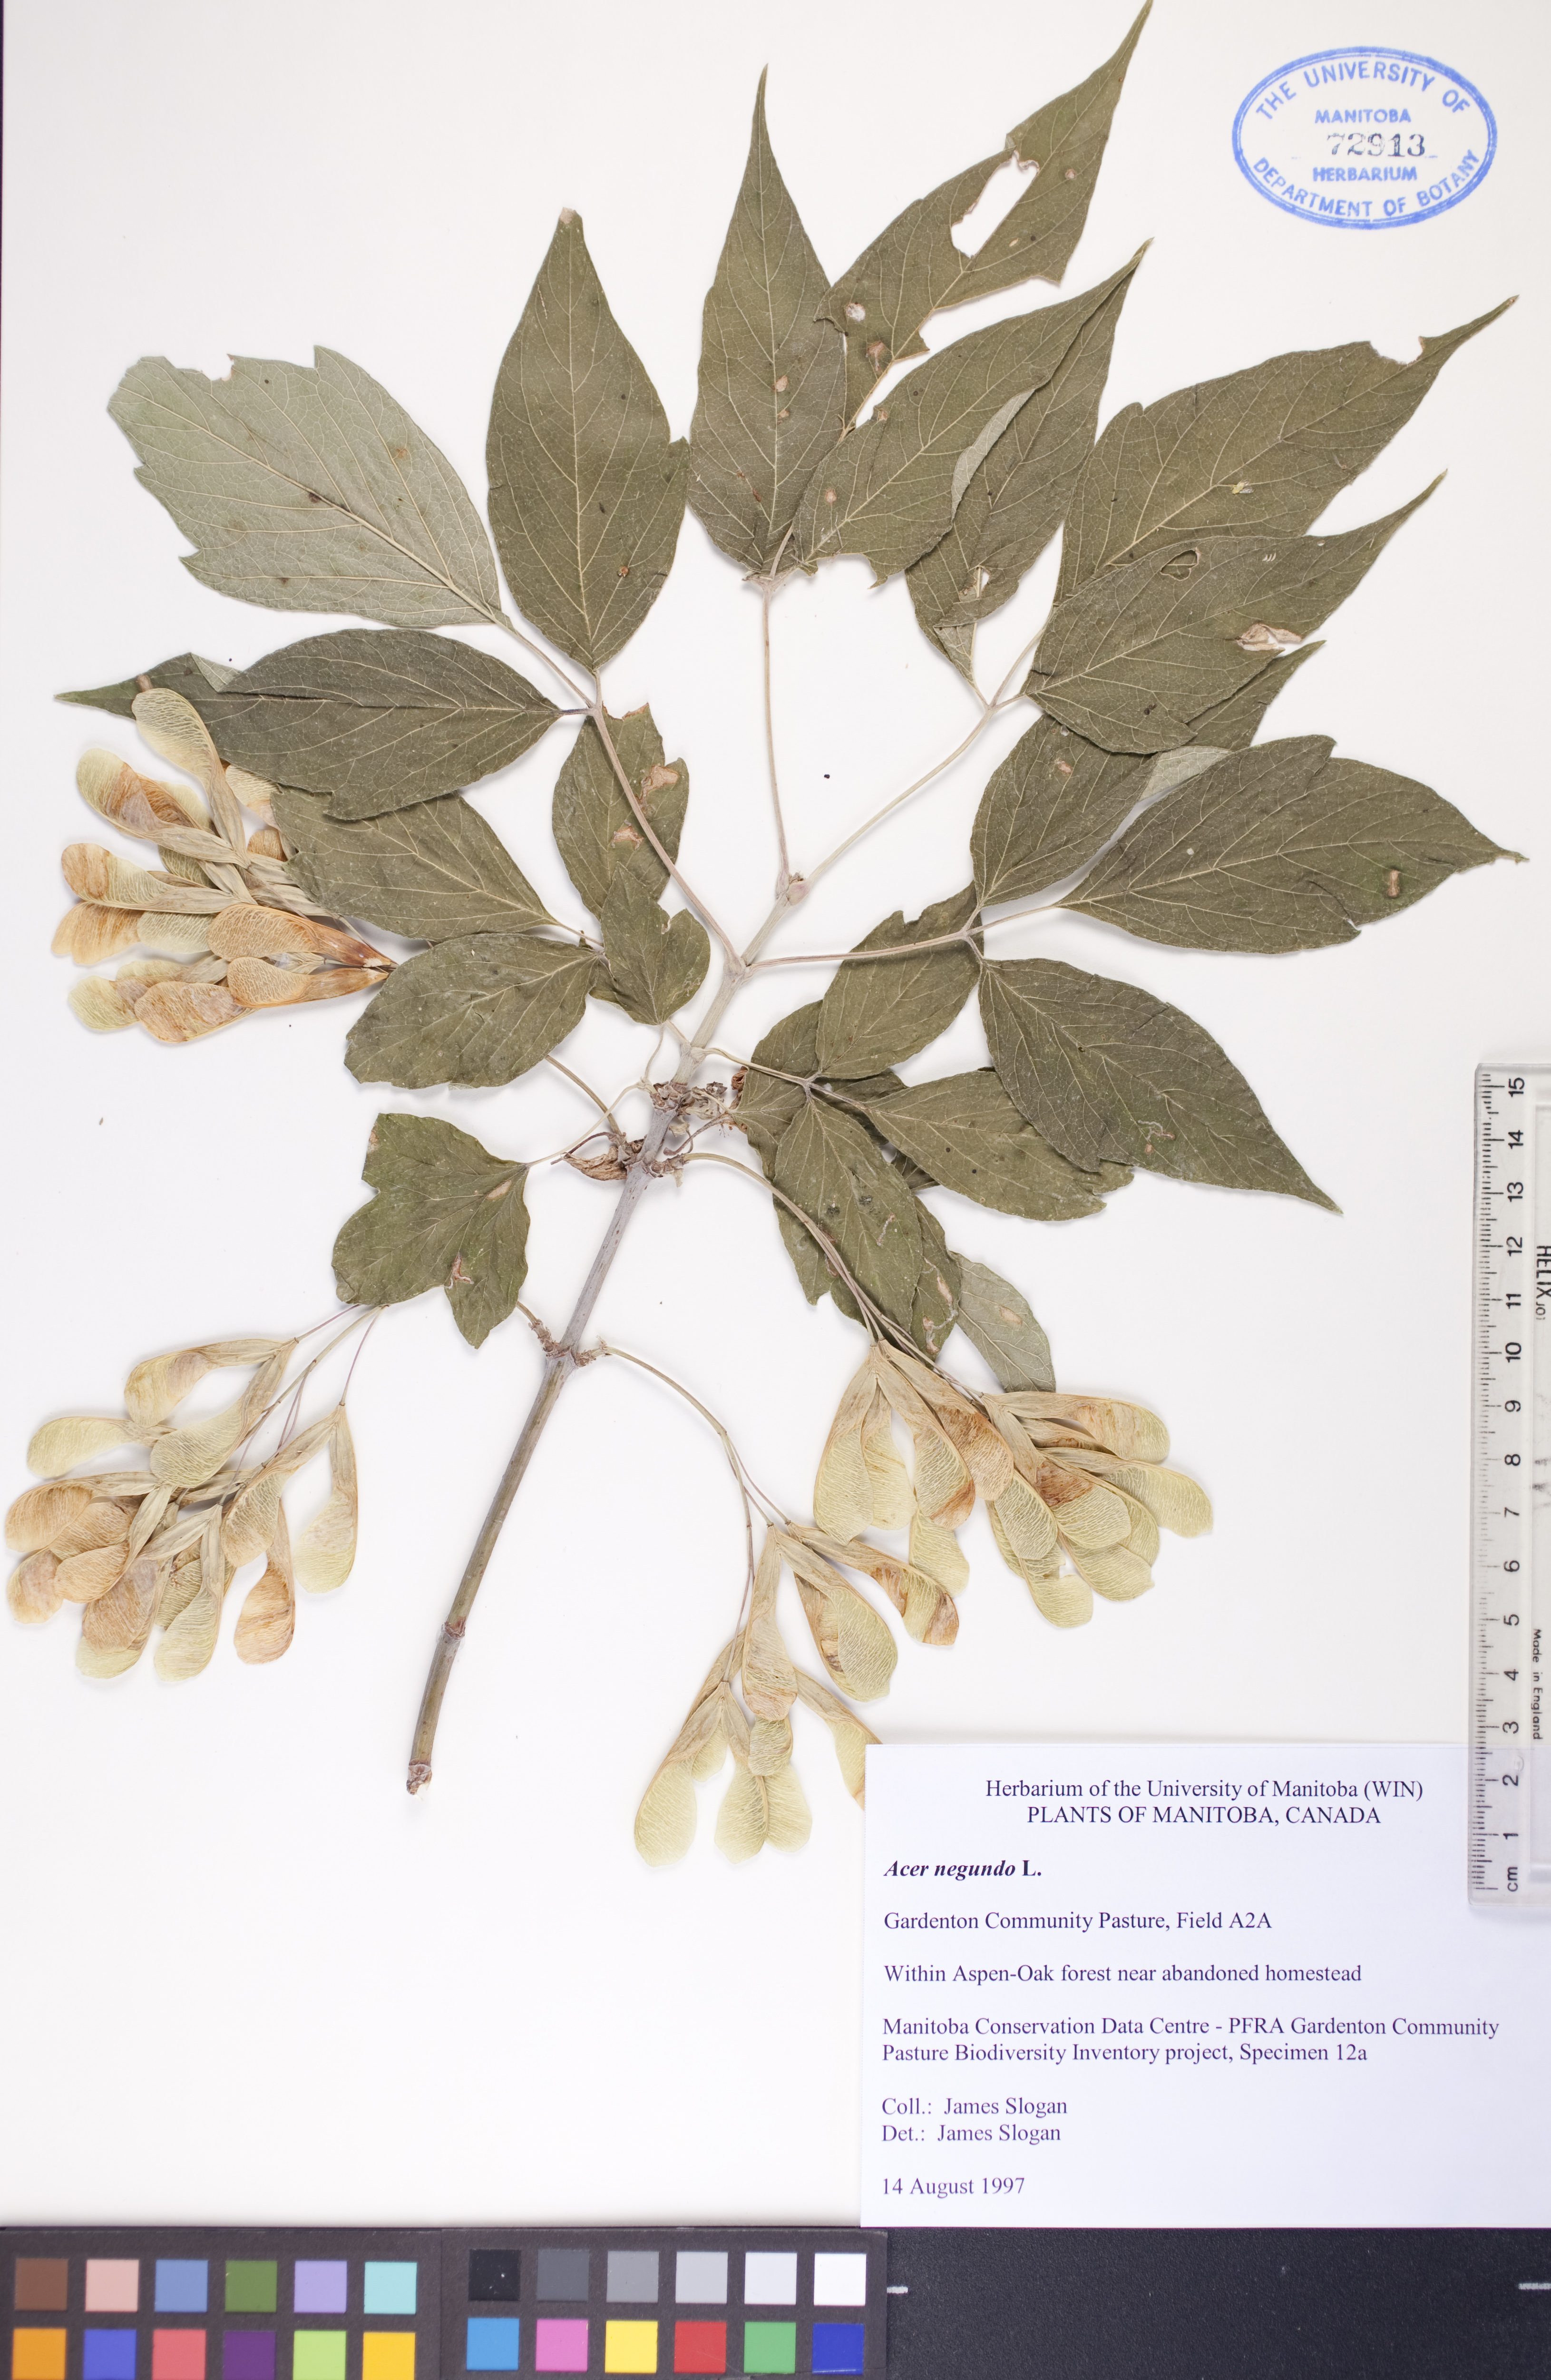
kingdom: Plantae
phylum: Tracheophyta
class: Magnoliopsida
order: Sapindales
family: Sapindaceae
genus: Acer
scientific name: Acer negundo
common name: Ashleaf maple
